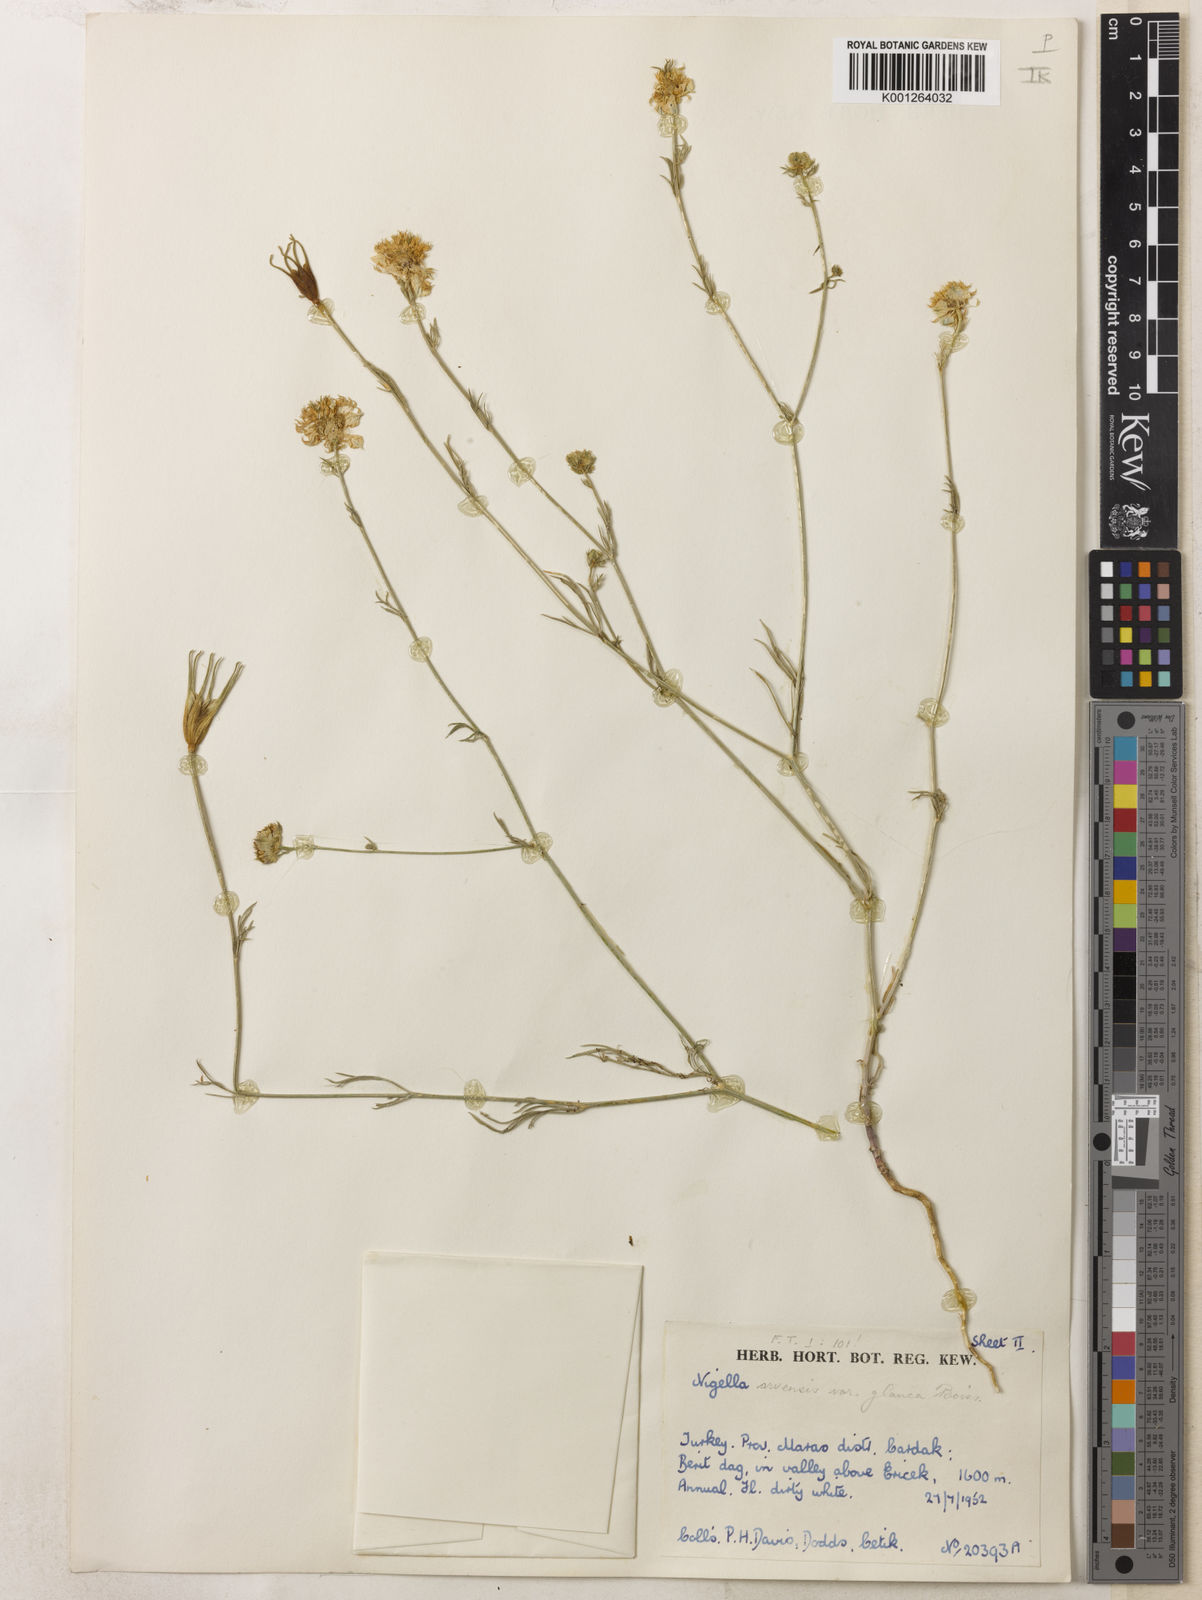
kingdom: Plantae
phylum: Tracheophyta
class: Magnoliopsida
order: Ranunculales
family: Ranunculaceae
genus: Nigella
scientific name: Nigella arvensis
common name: Wild fennel-flower
